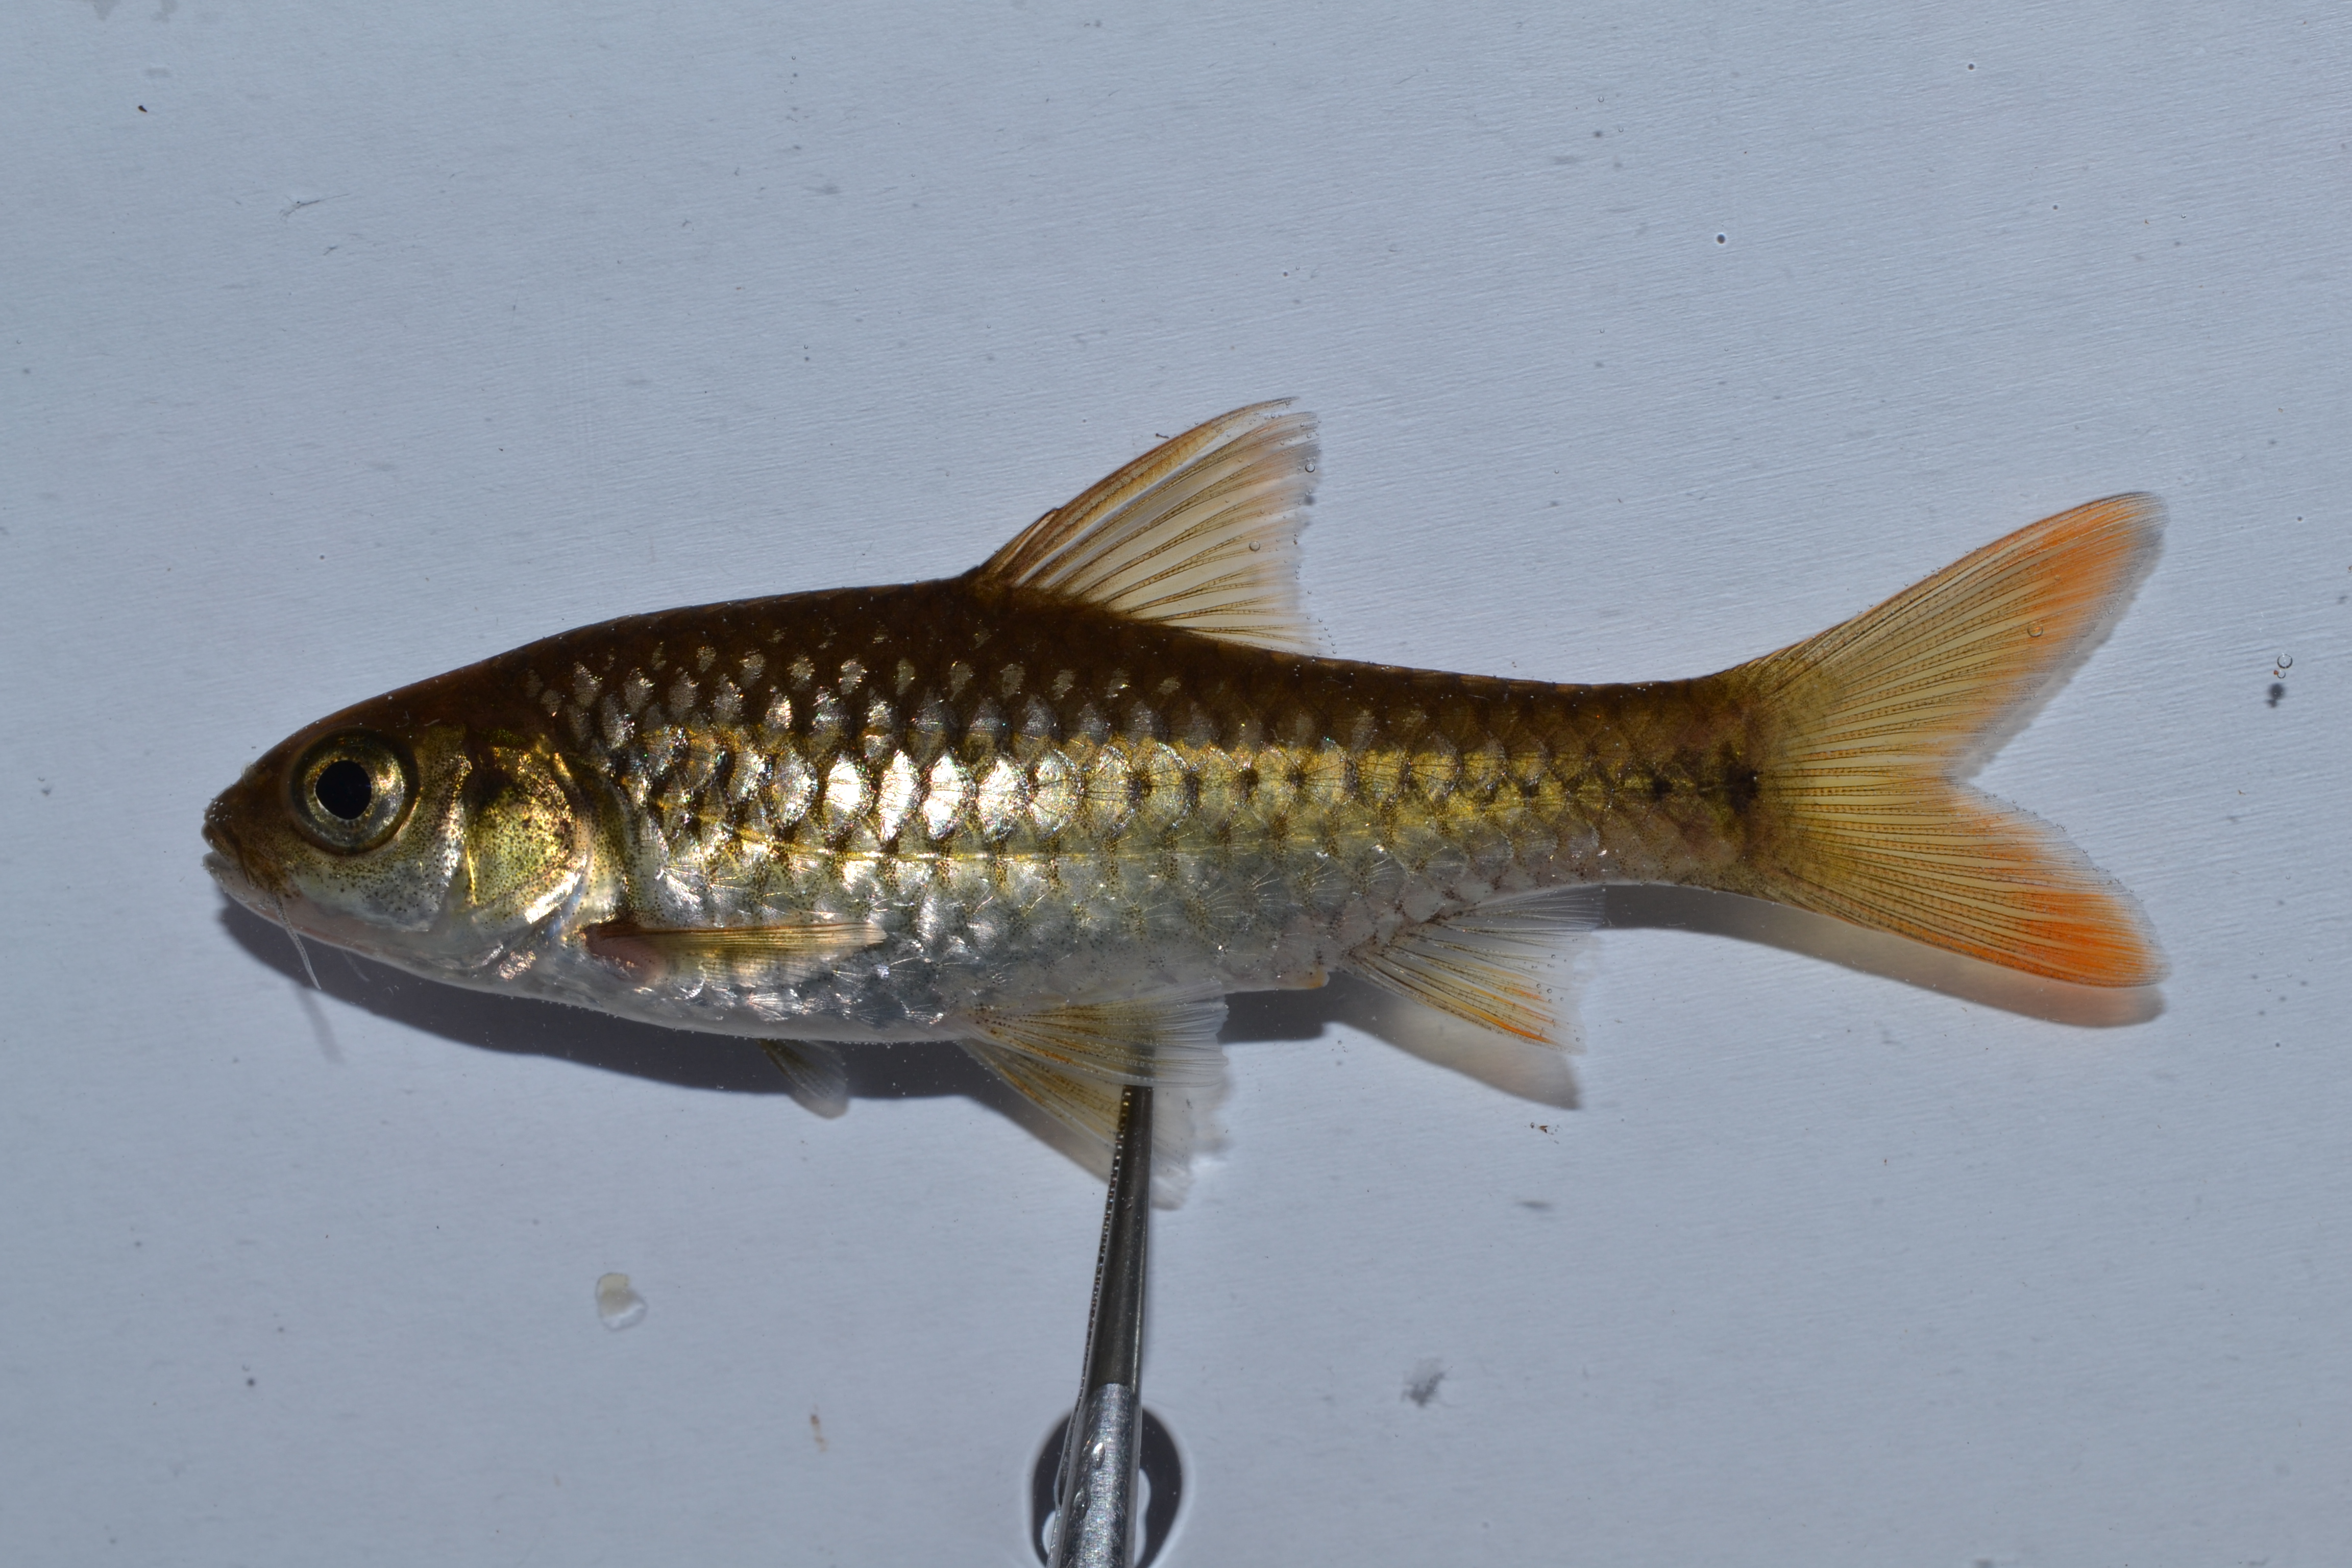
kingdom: Animalia
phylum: Chordata
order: Cypriniformes
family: Cyprinidae
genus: Enteromius
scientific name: Enteromius manicensis
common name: Yellow barb
